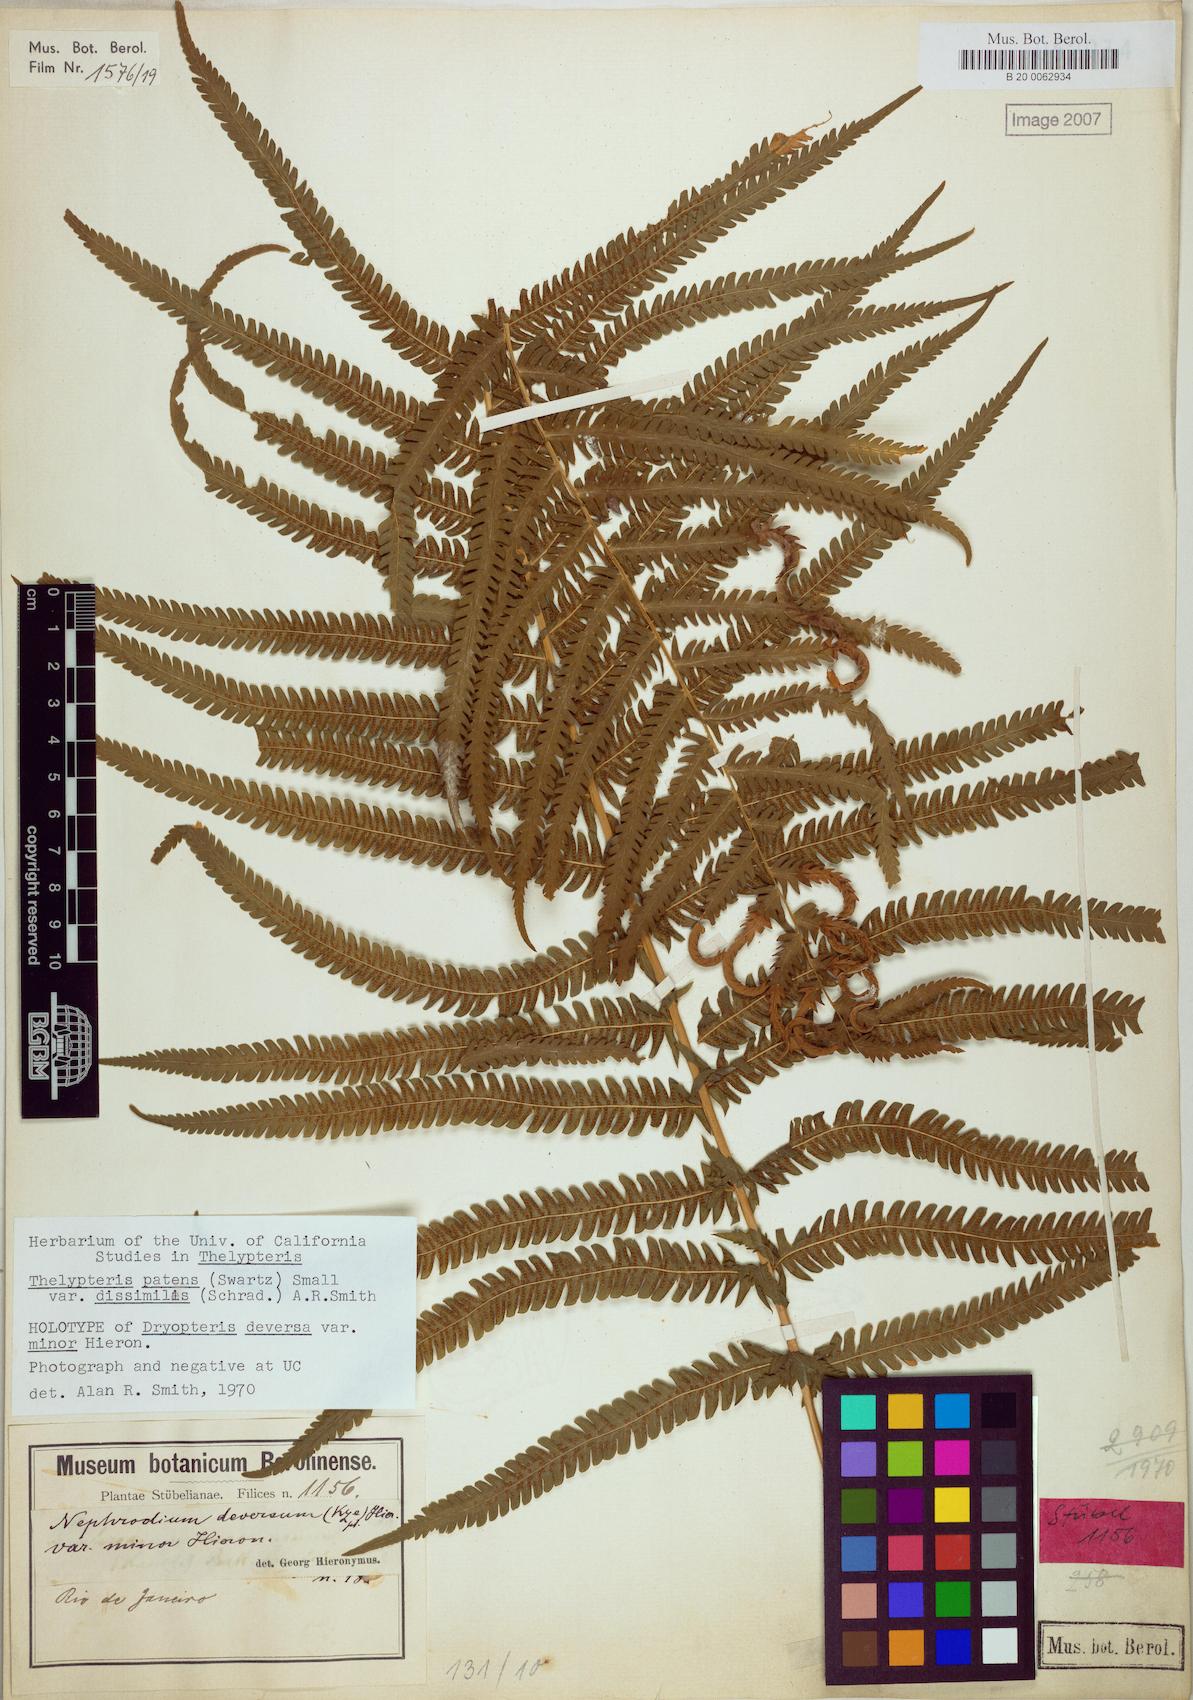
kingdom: Plantae
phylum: Tracheophyta
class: Polypodiopsida
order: Polypodiales
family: Thelypteridaceae
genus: Pelazoneuron
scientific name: Pelazoneuron patens
